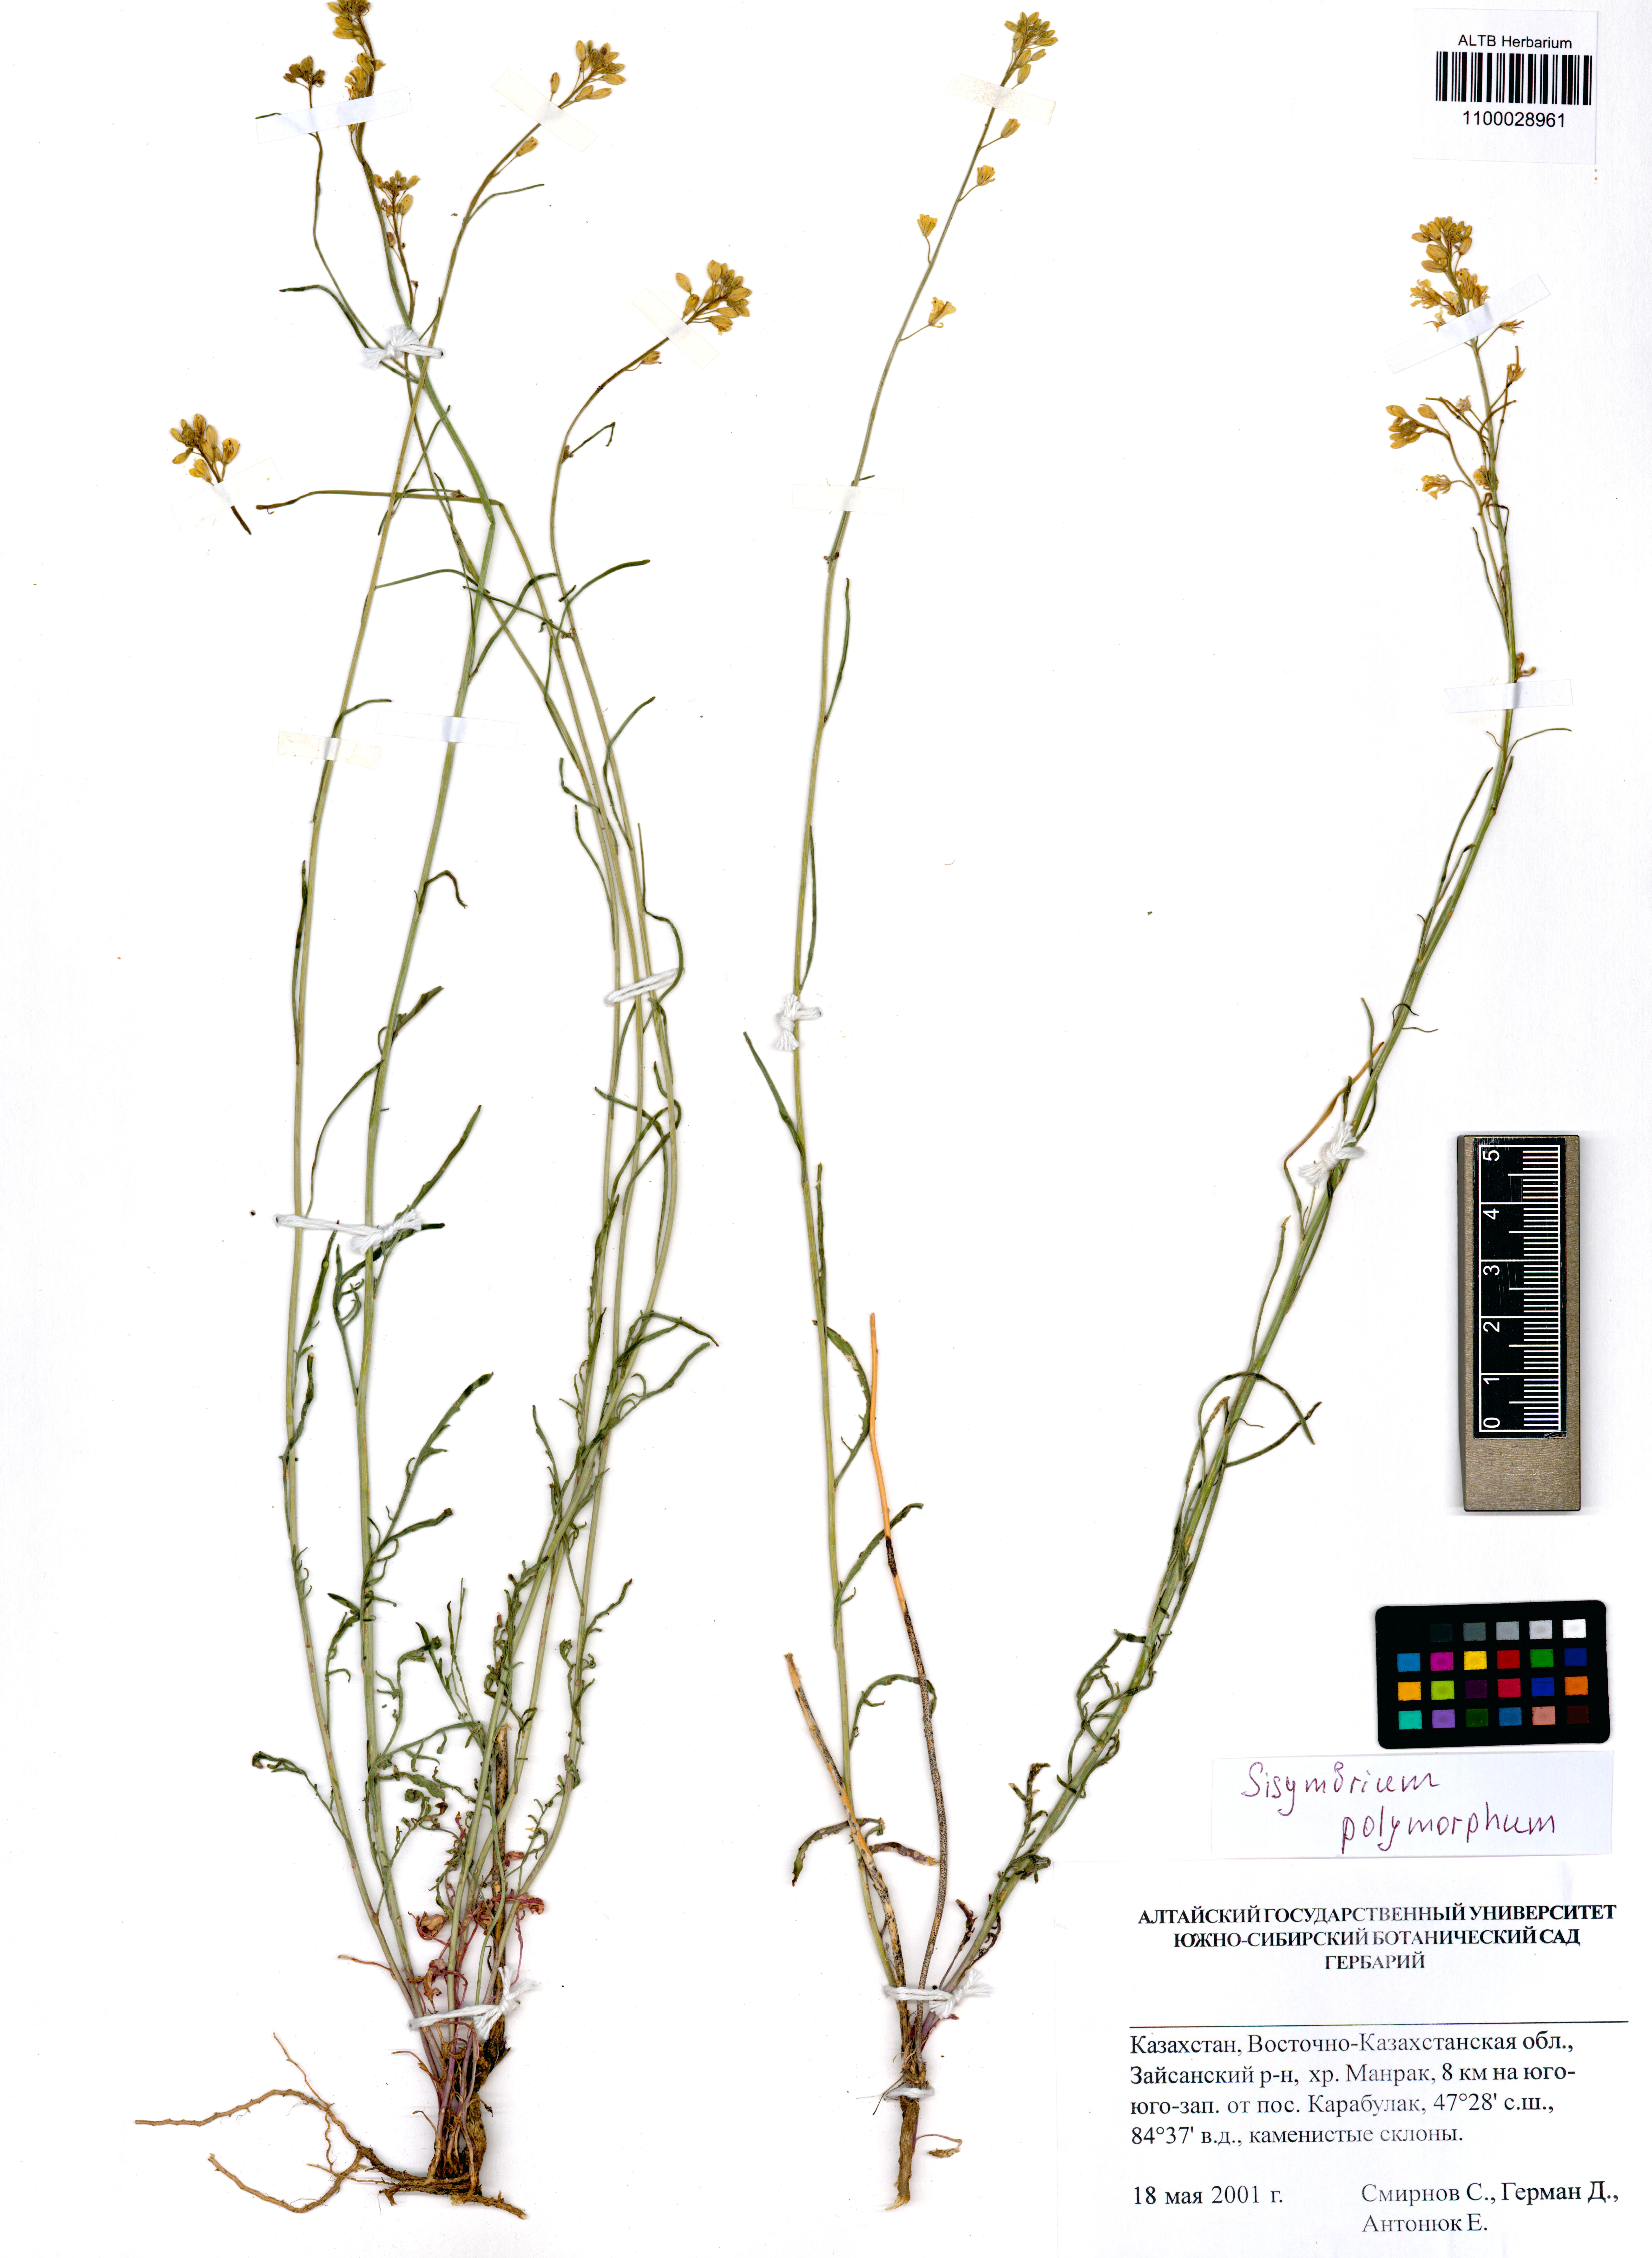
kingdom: Plantae
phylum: Tracheophyta
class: Magnoliopsida
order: Brassicales
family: Brassicaceae
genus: Sisymbrium
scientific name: Sisymbrium polymorphum
